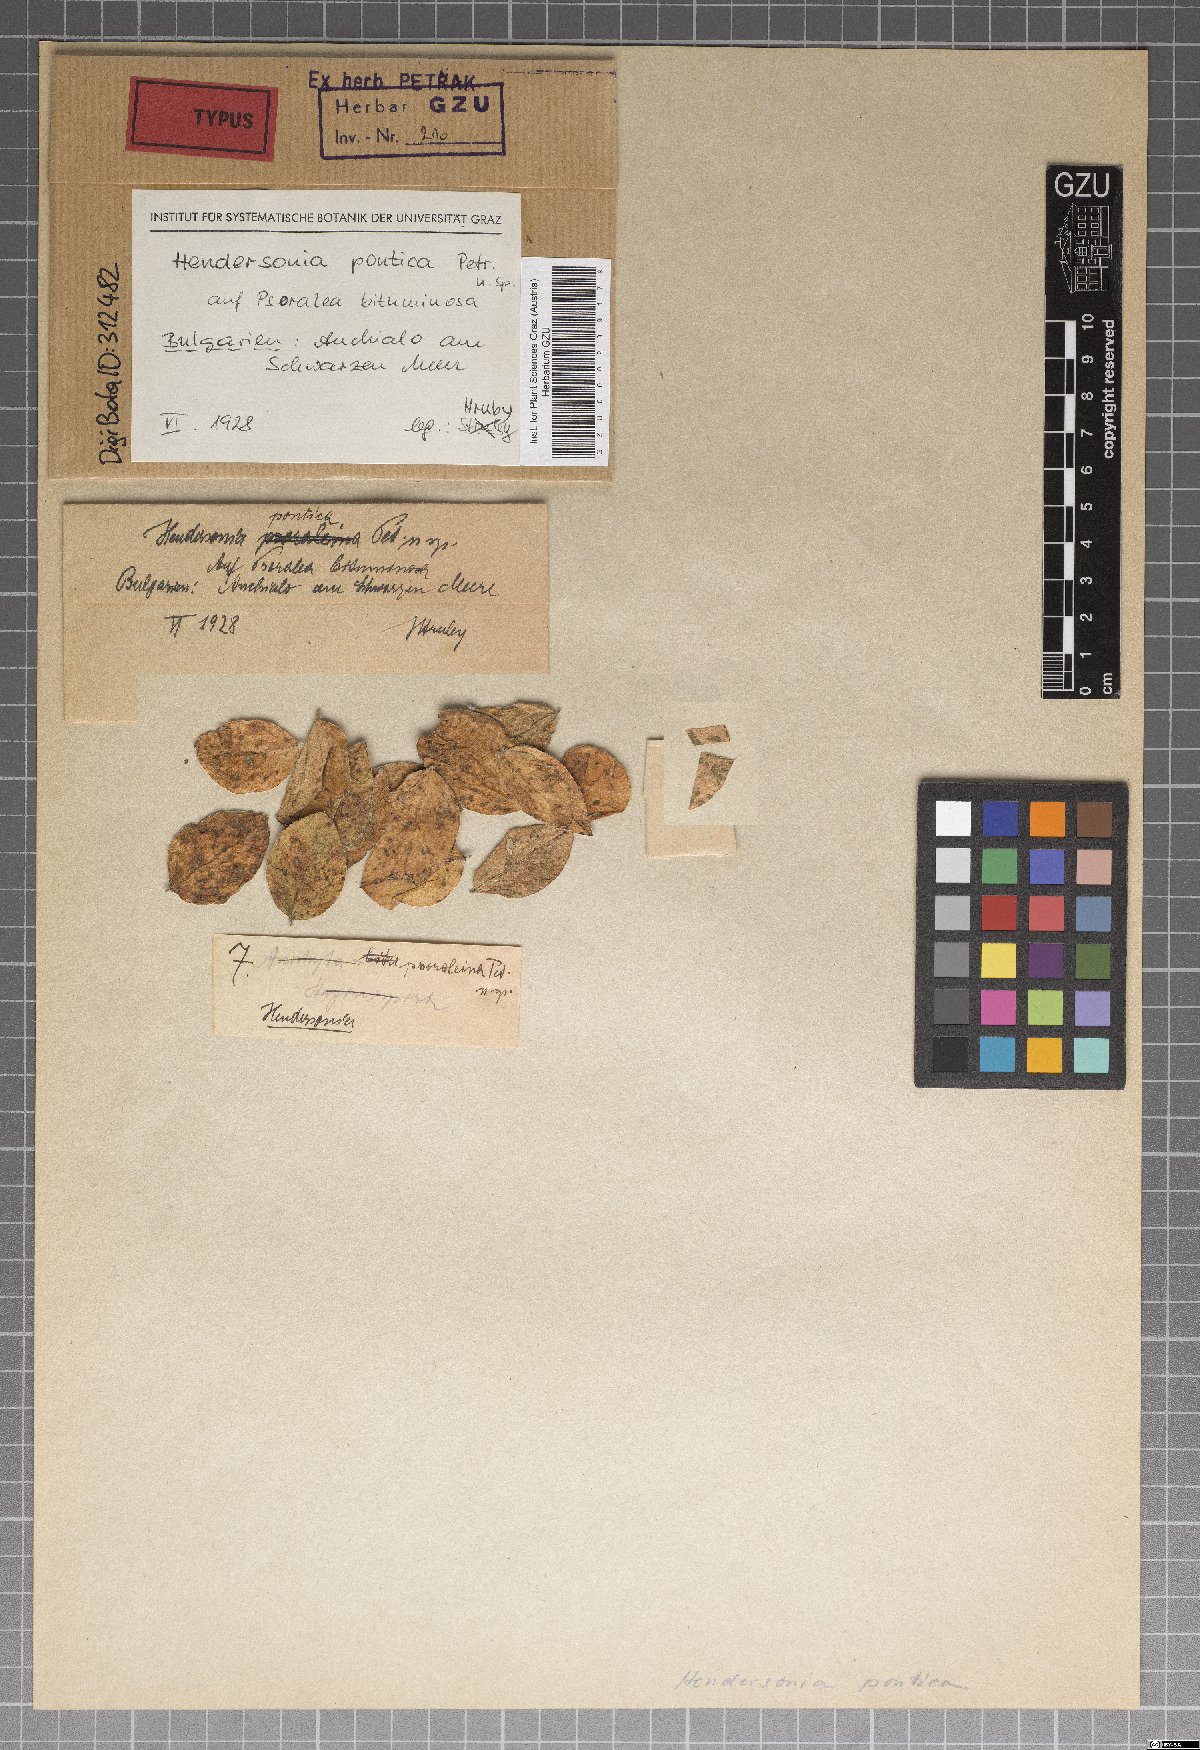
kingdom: Fungi
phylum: Ascomycota
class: Dothideomycetes
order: Pleosporales
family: Phaeosphaeriaceae
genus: Hendersonia
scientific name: Hendersonia pontica
